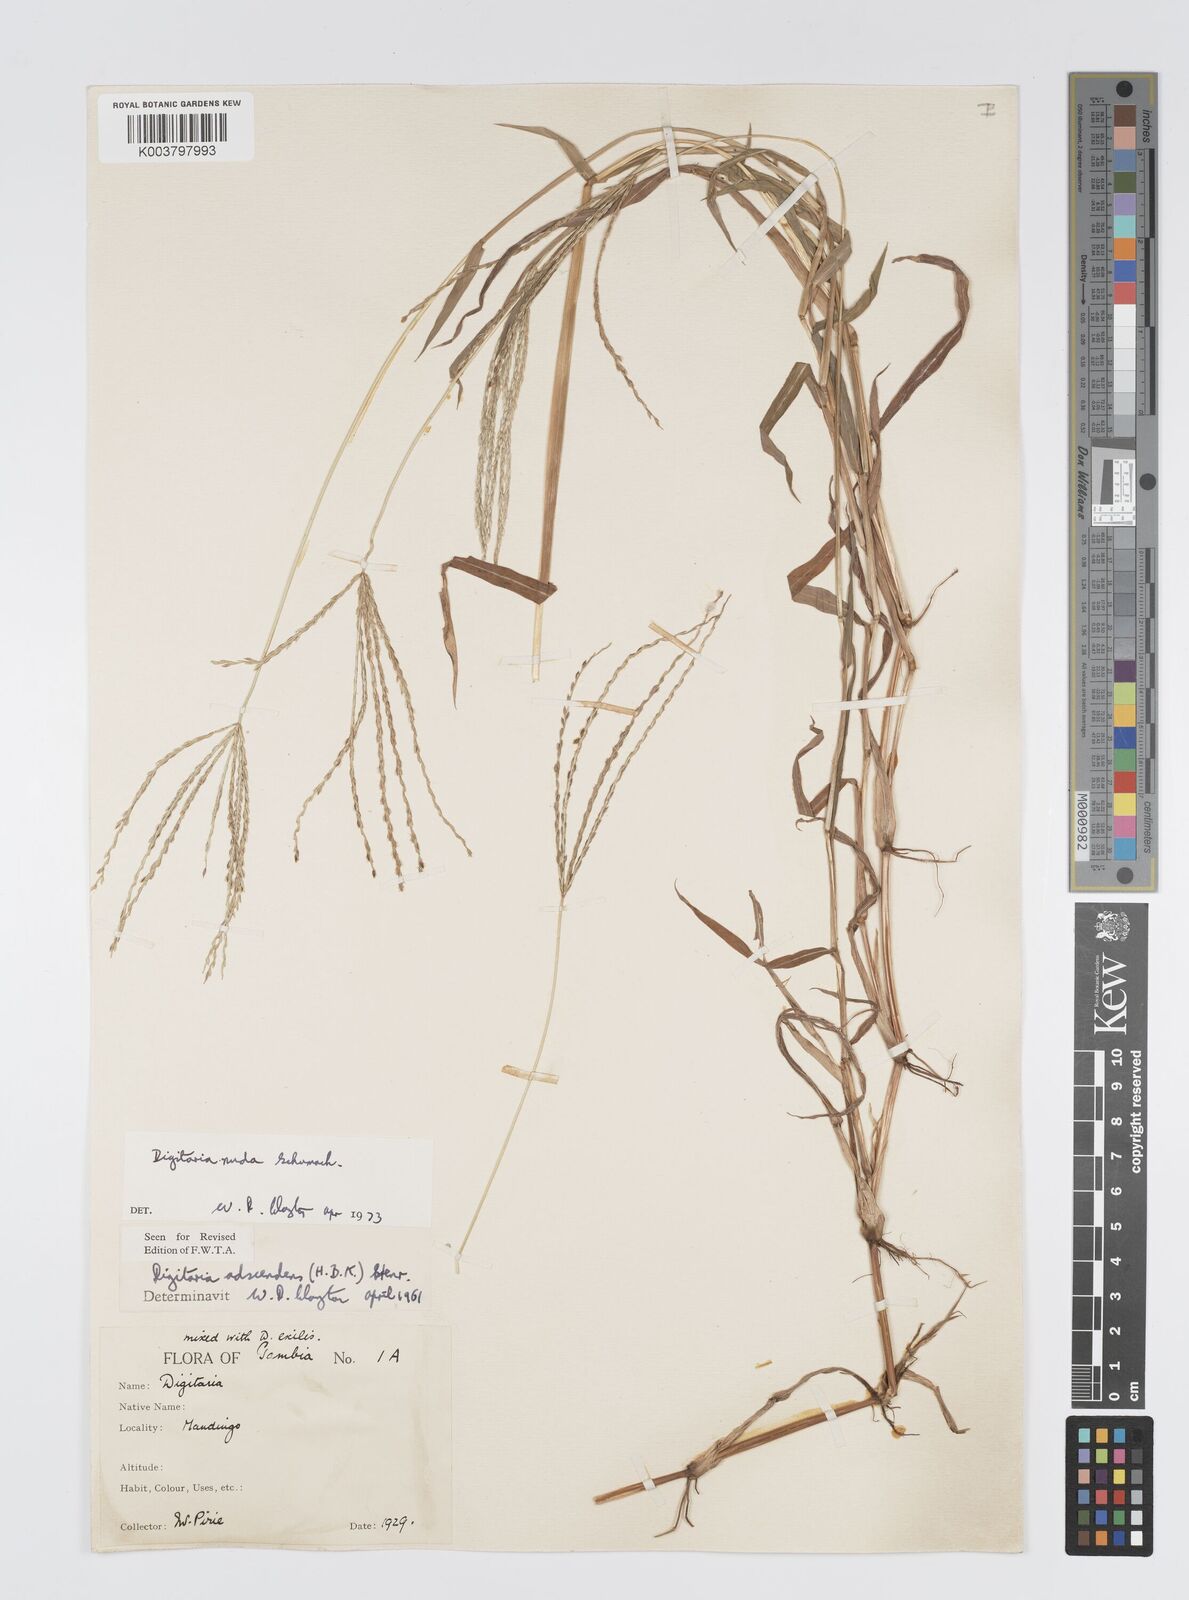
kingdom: Plantae
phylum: Tracheophyta
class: Liliopsida
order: Poales
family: Poaceae
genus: Digitaria
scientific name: Digitaria nuda
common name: Naked crabgrass
